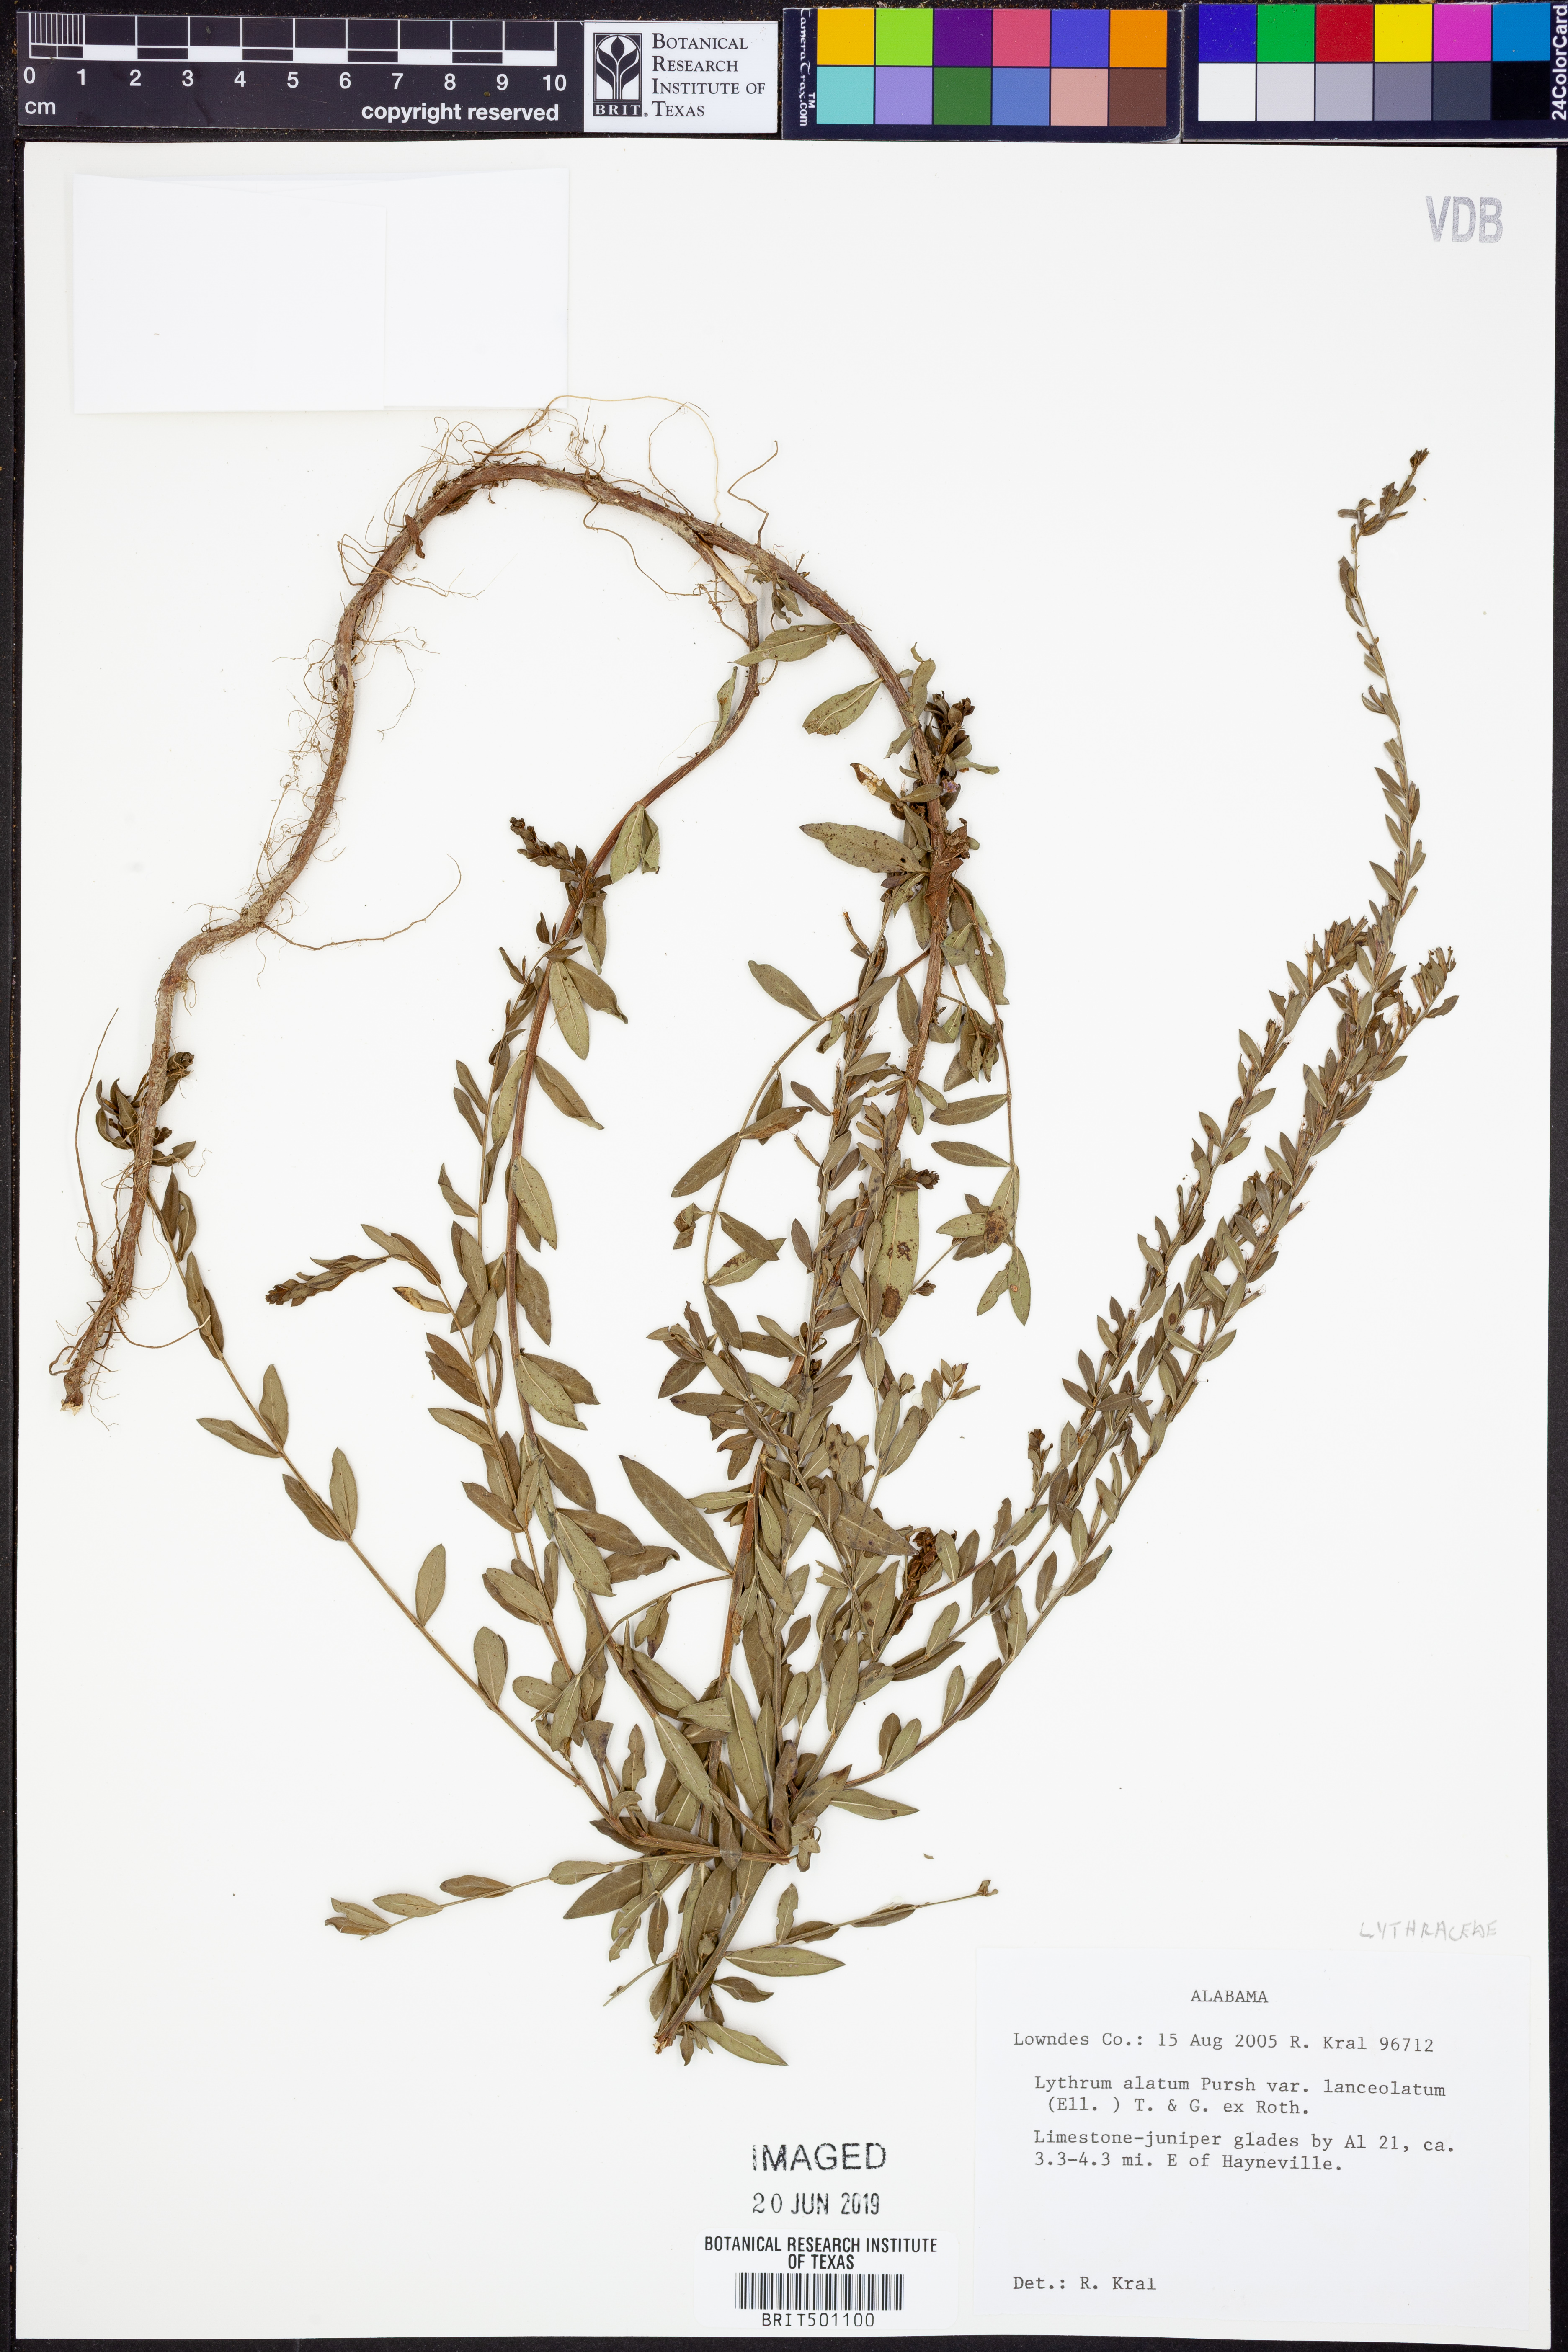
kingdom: Plantae
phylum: Tracheophyta
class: Magnoliopsida
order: Myrtales
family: Lythraceae
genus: Lythrum
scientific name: Lythrum alatum
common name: Winged loosestrife
